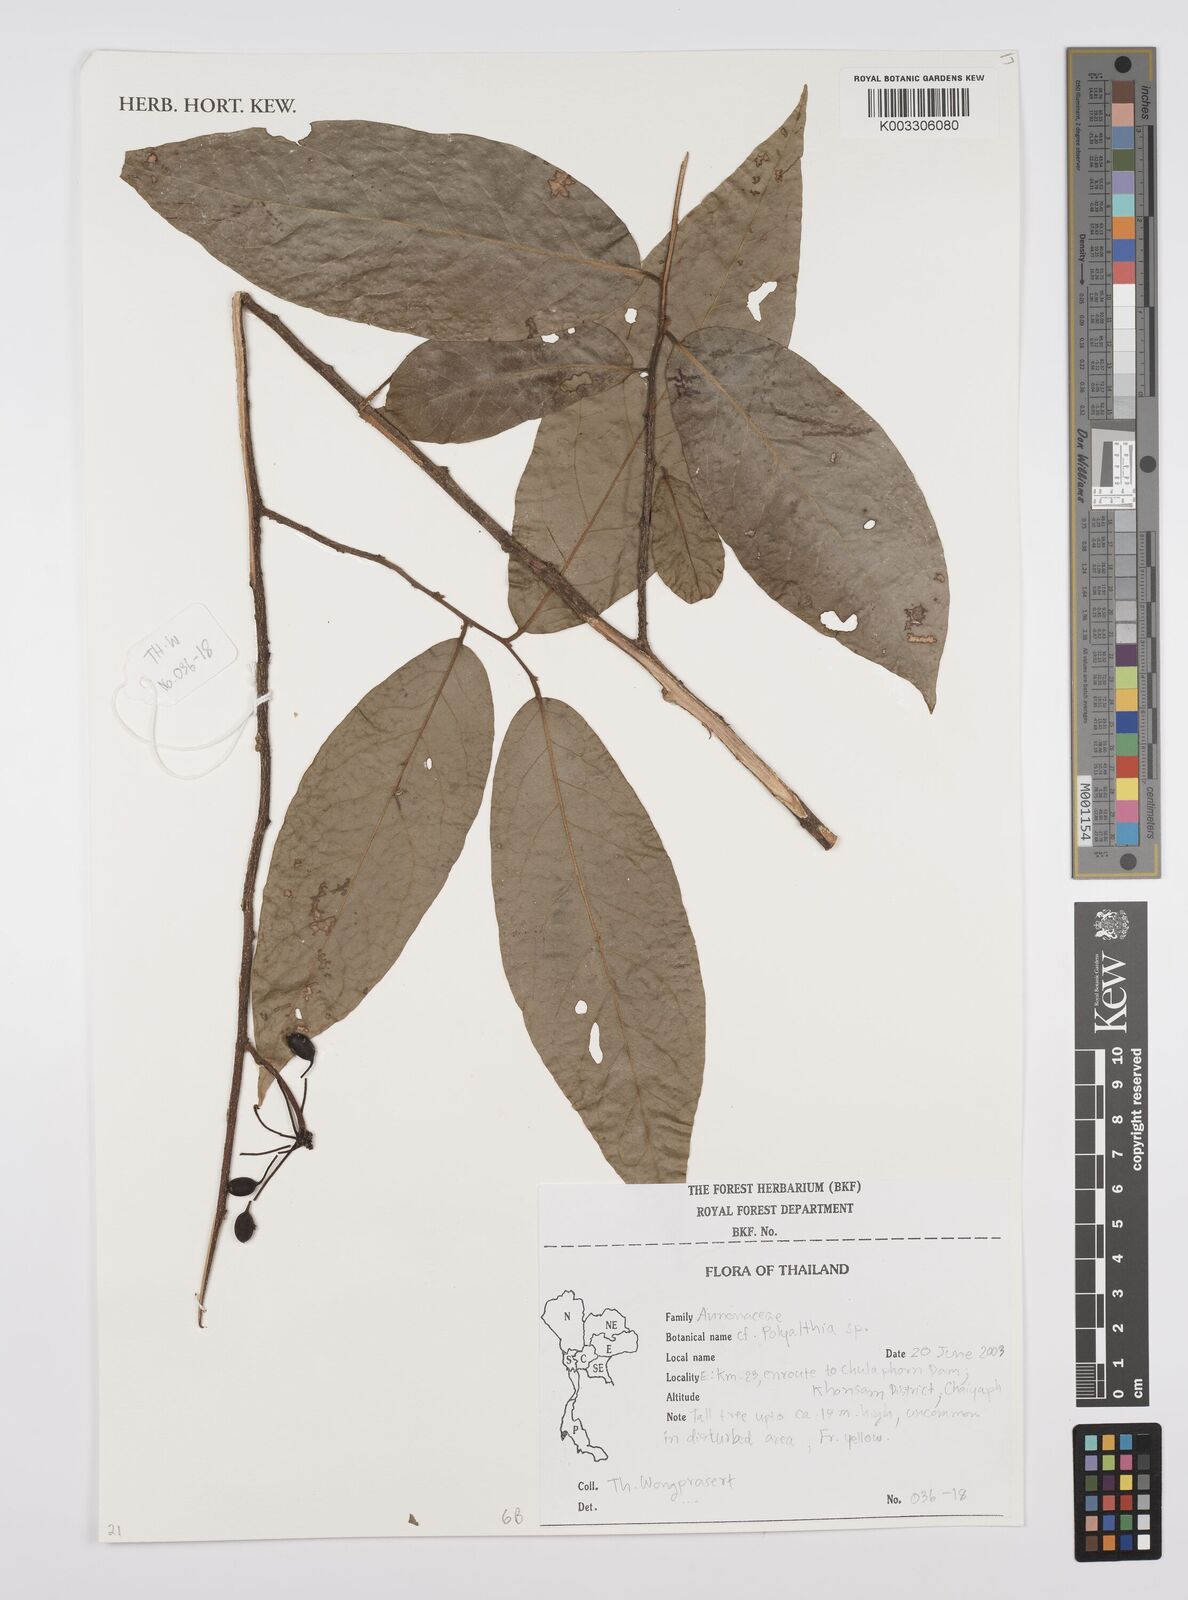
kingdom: Plantae
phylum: Tracheophyta
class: Magnoliopsida
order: Magnoliales
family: Annonaceae
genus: Huberantha
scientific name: Huberantha
